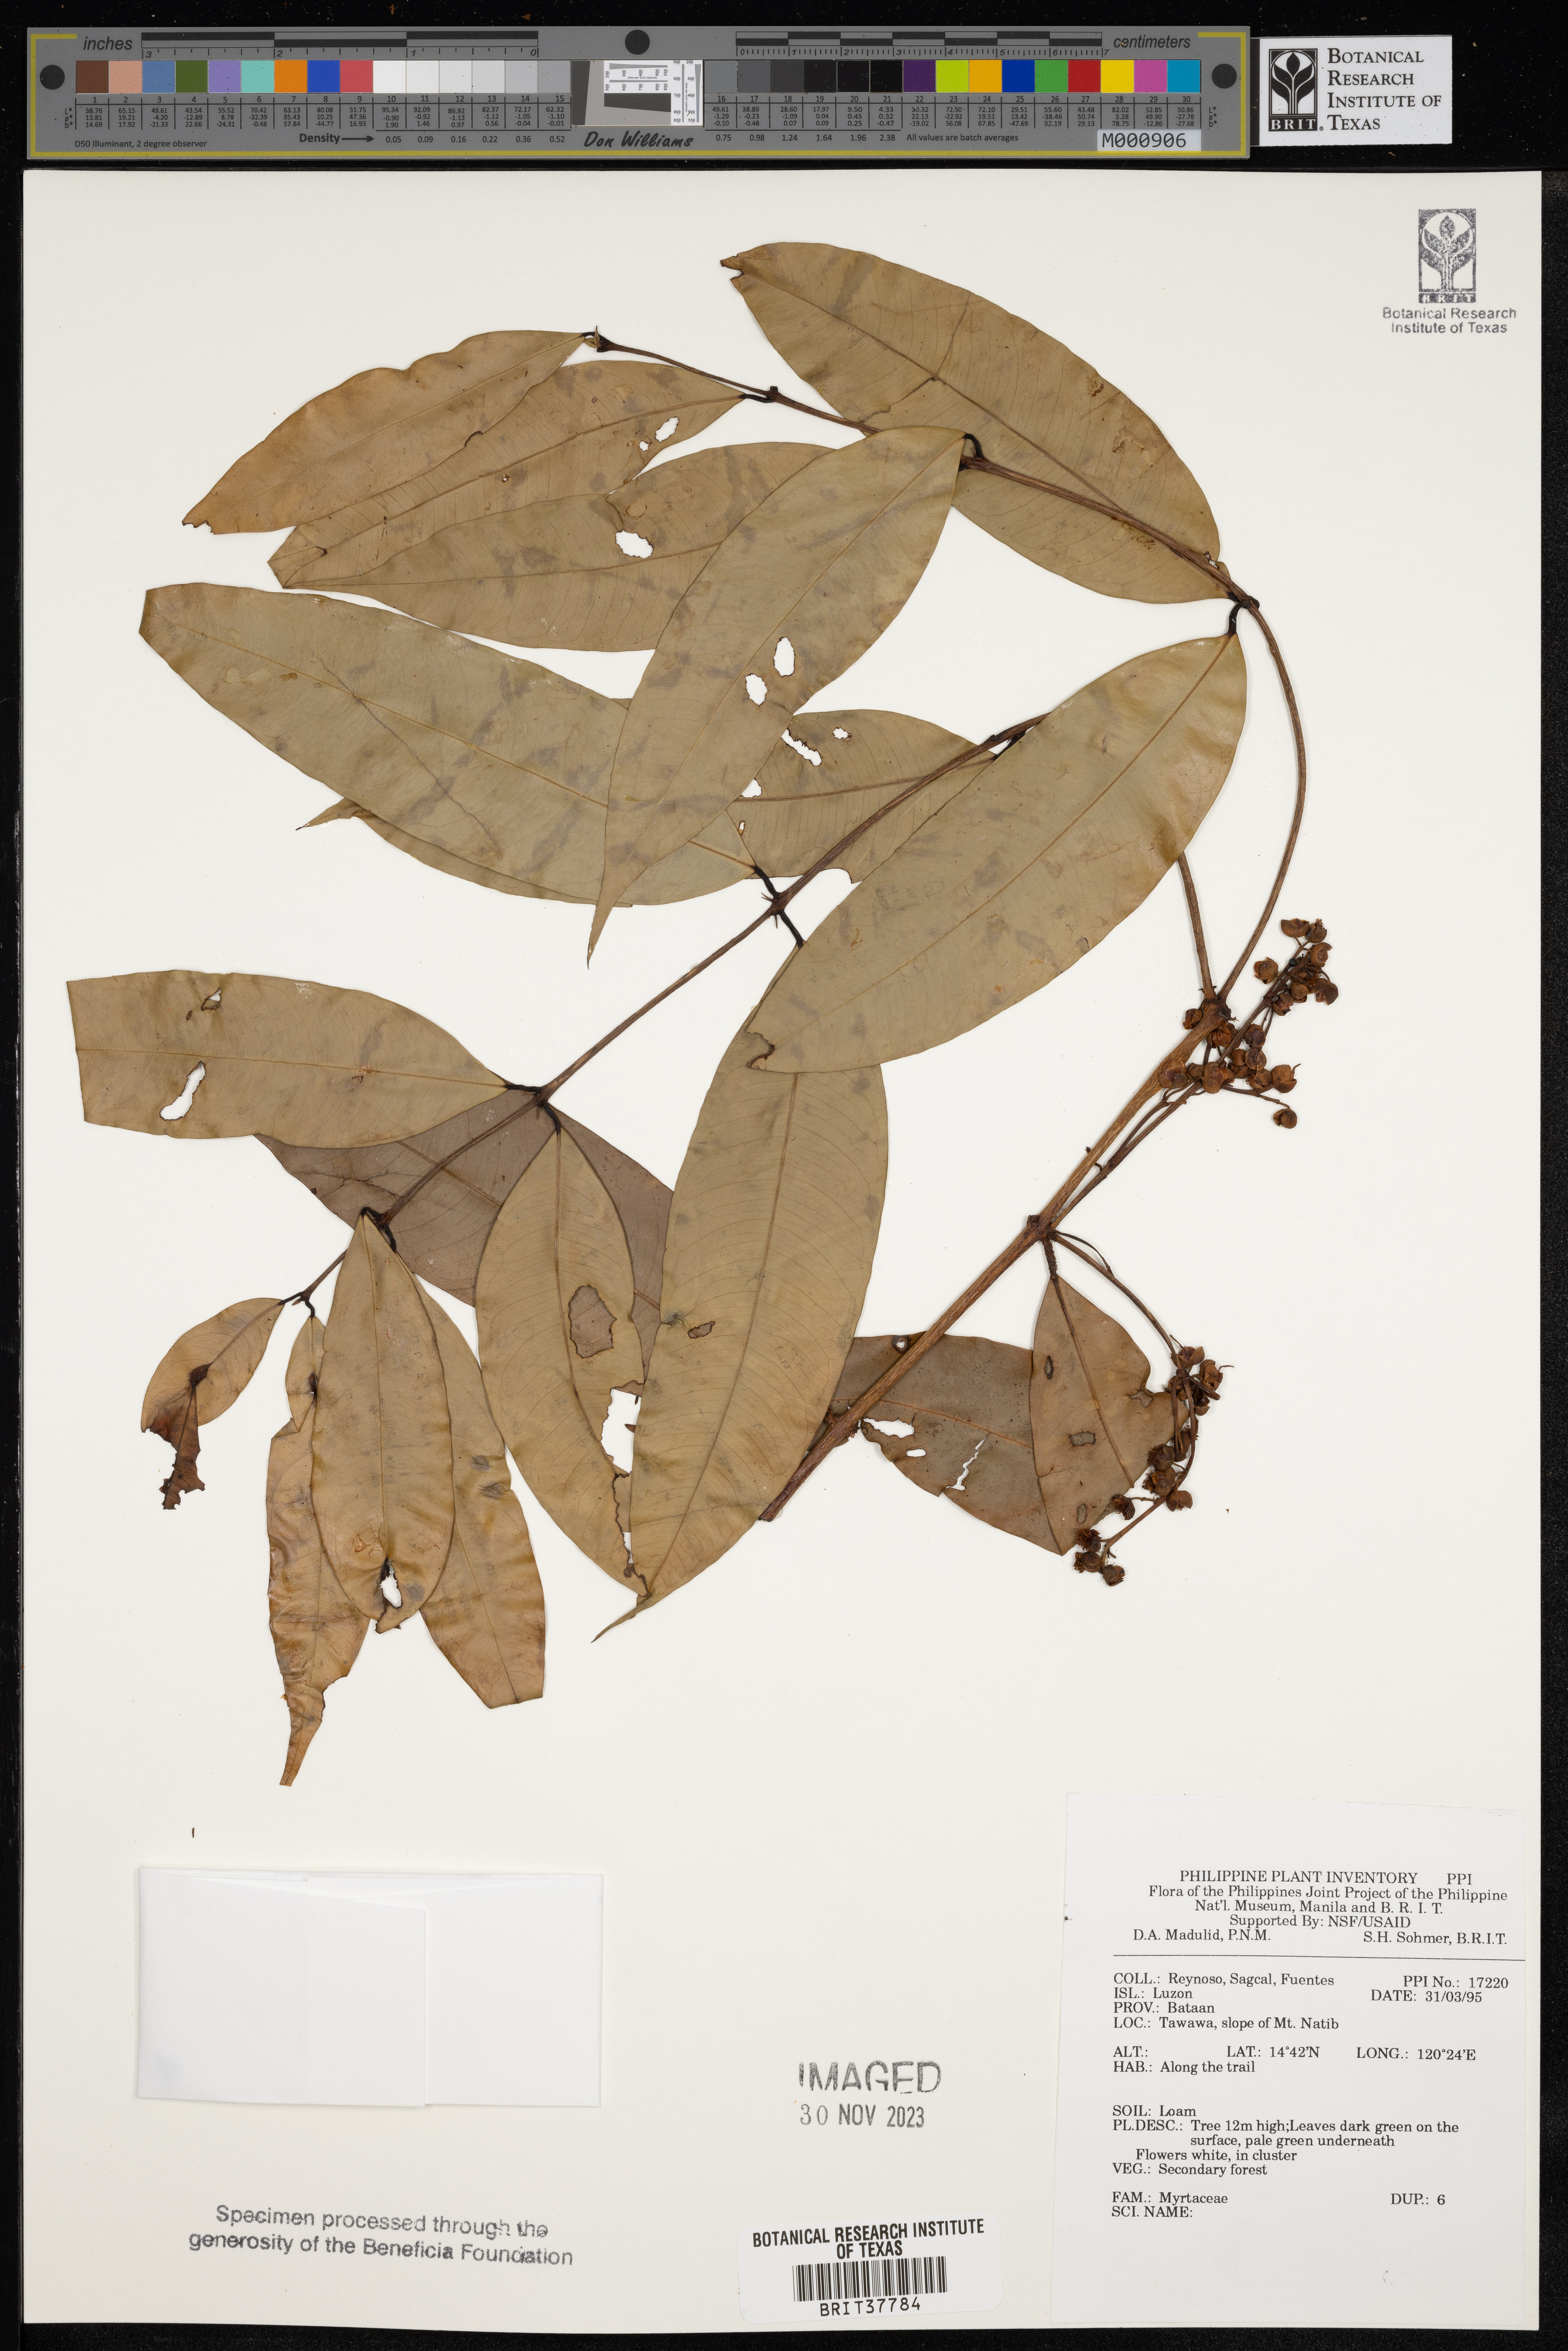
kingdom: Plantae
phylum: Tracheophyta
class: Magnoliopsida
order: Myrtales
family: Myrtaceae
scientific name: Myrtaceae
